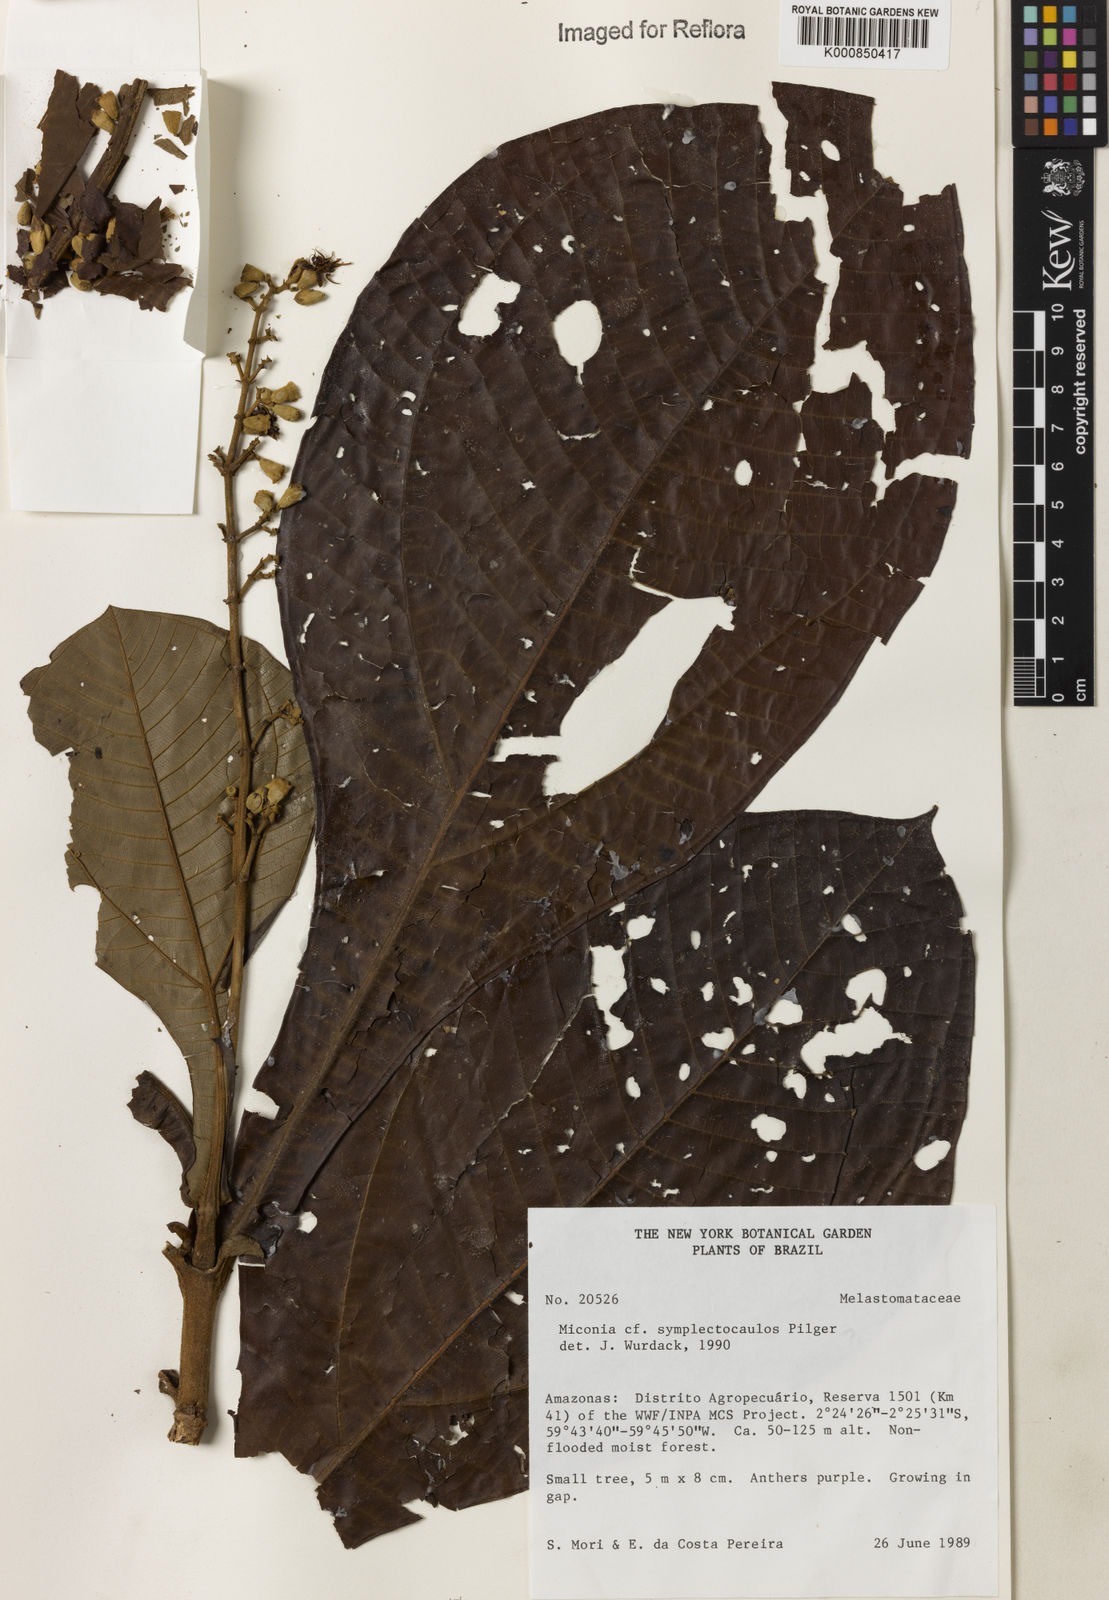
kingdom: Plantae
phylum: Tracheophyta
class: Magnoliopsida
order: Myrtales
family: Melastomataceae
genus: Miconia
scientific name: Miconia symplectocaulos
